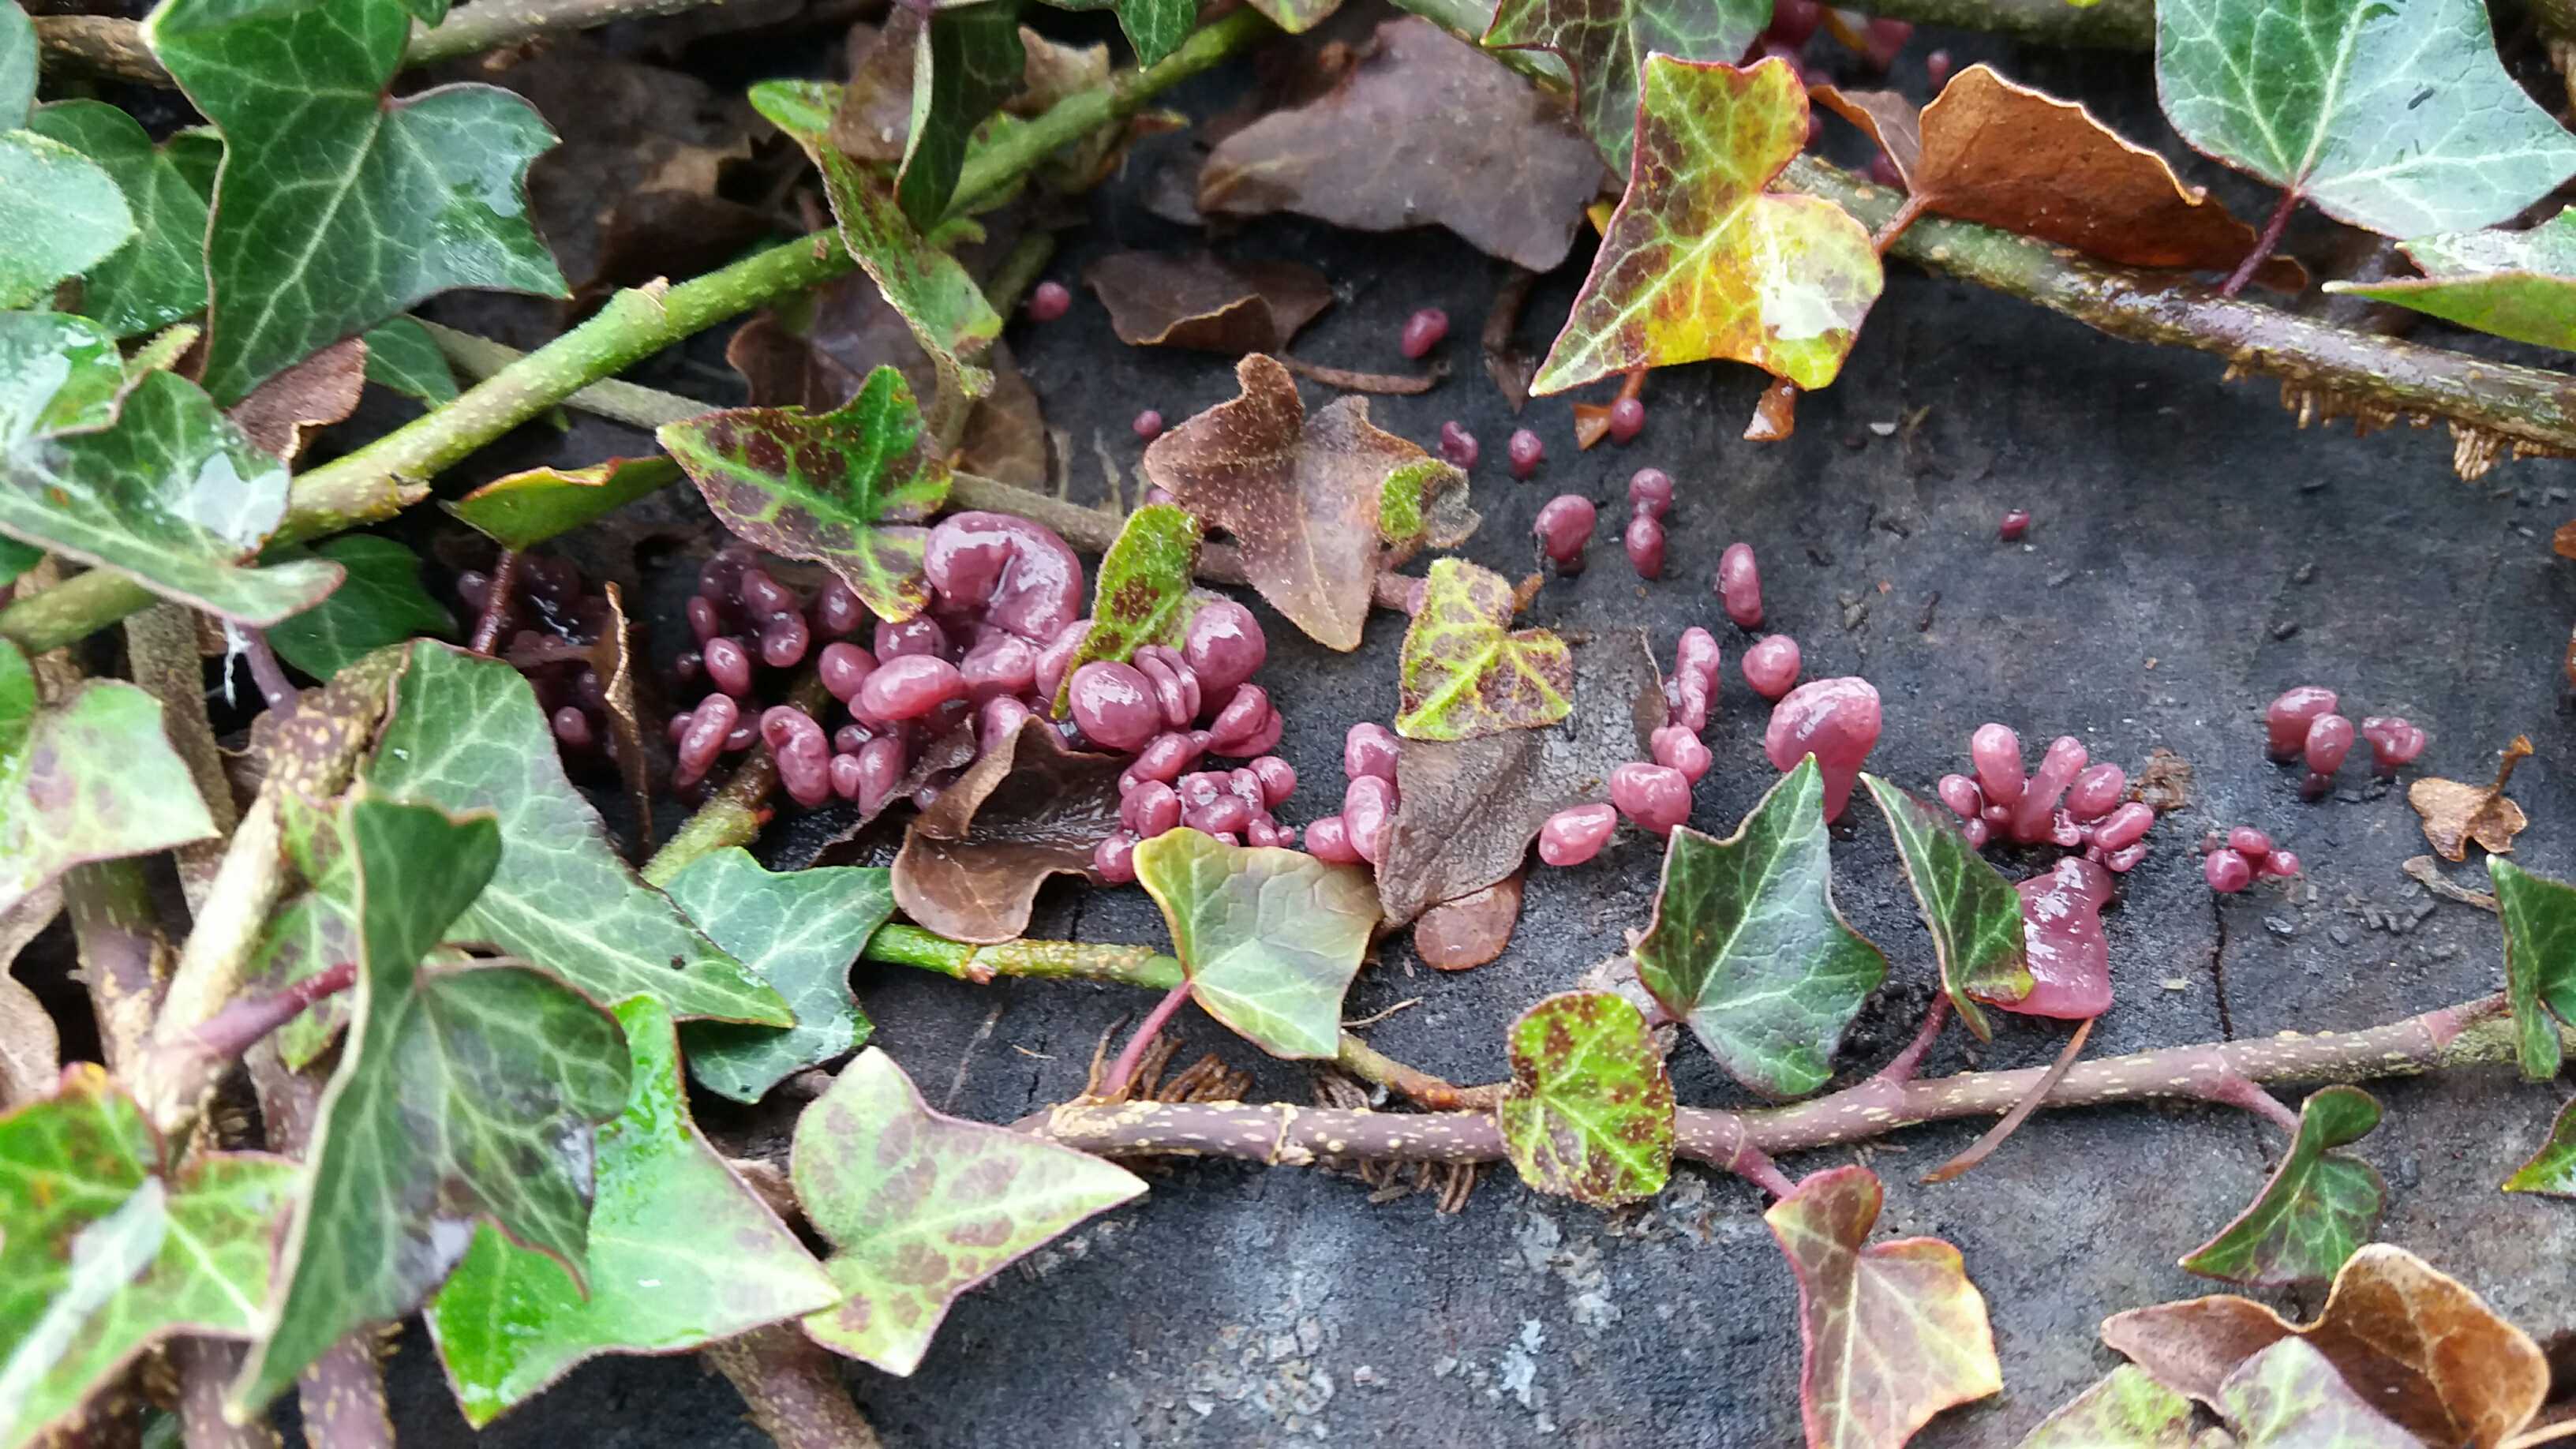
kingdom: Fungi
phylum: Ascomycota
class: Leotiomycetes
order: Helotiales
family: Gelatinodiscaceae
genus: Ascocoryne
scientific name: Ascocoryne sarcoides
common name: rødlilla sejskive
